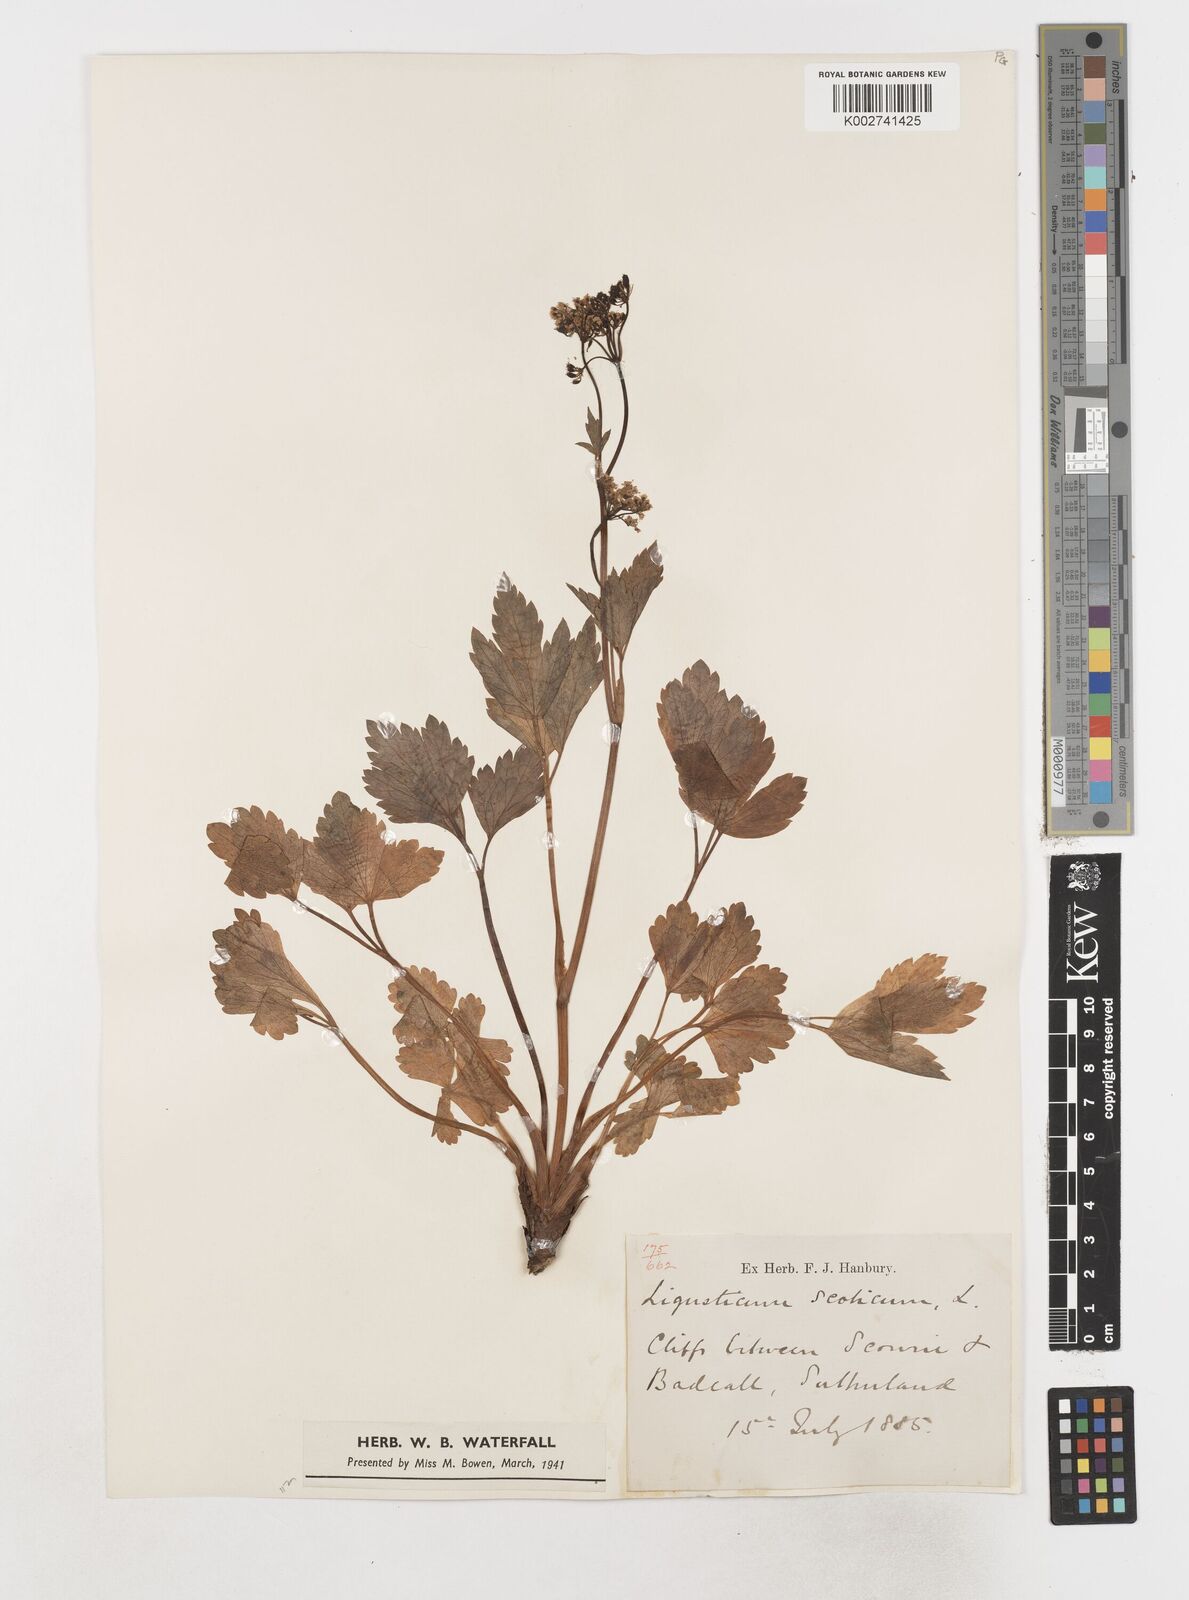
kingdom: Plantae
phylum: Tracheophyta
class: Magnoliopsida
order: Apiales
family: Apiaceae
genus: Ligusticum
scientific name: Ligusticum scothicum
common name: Beach lovage
